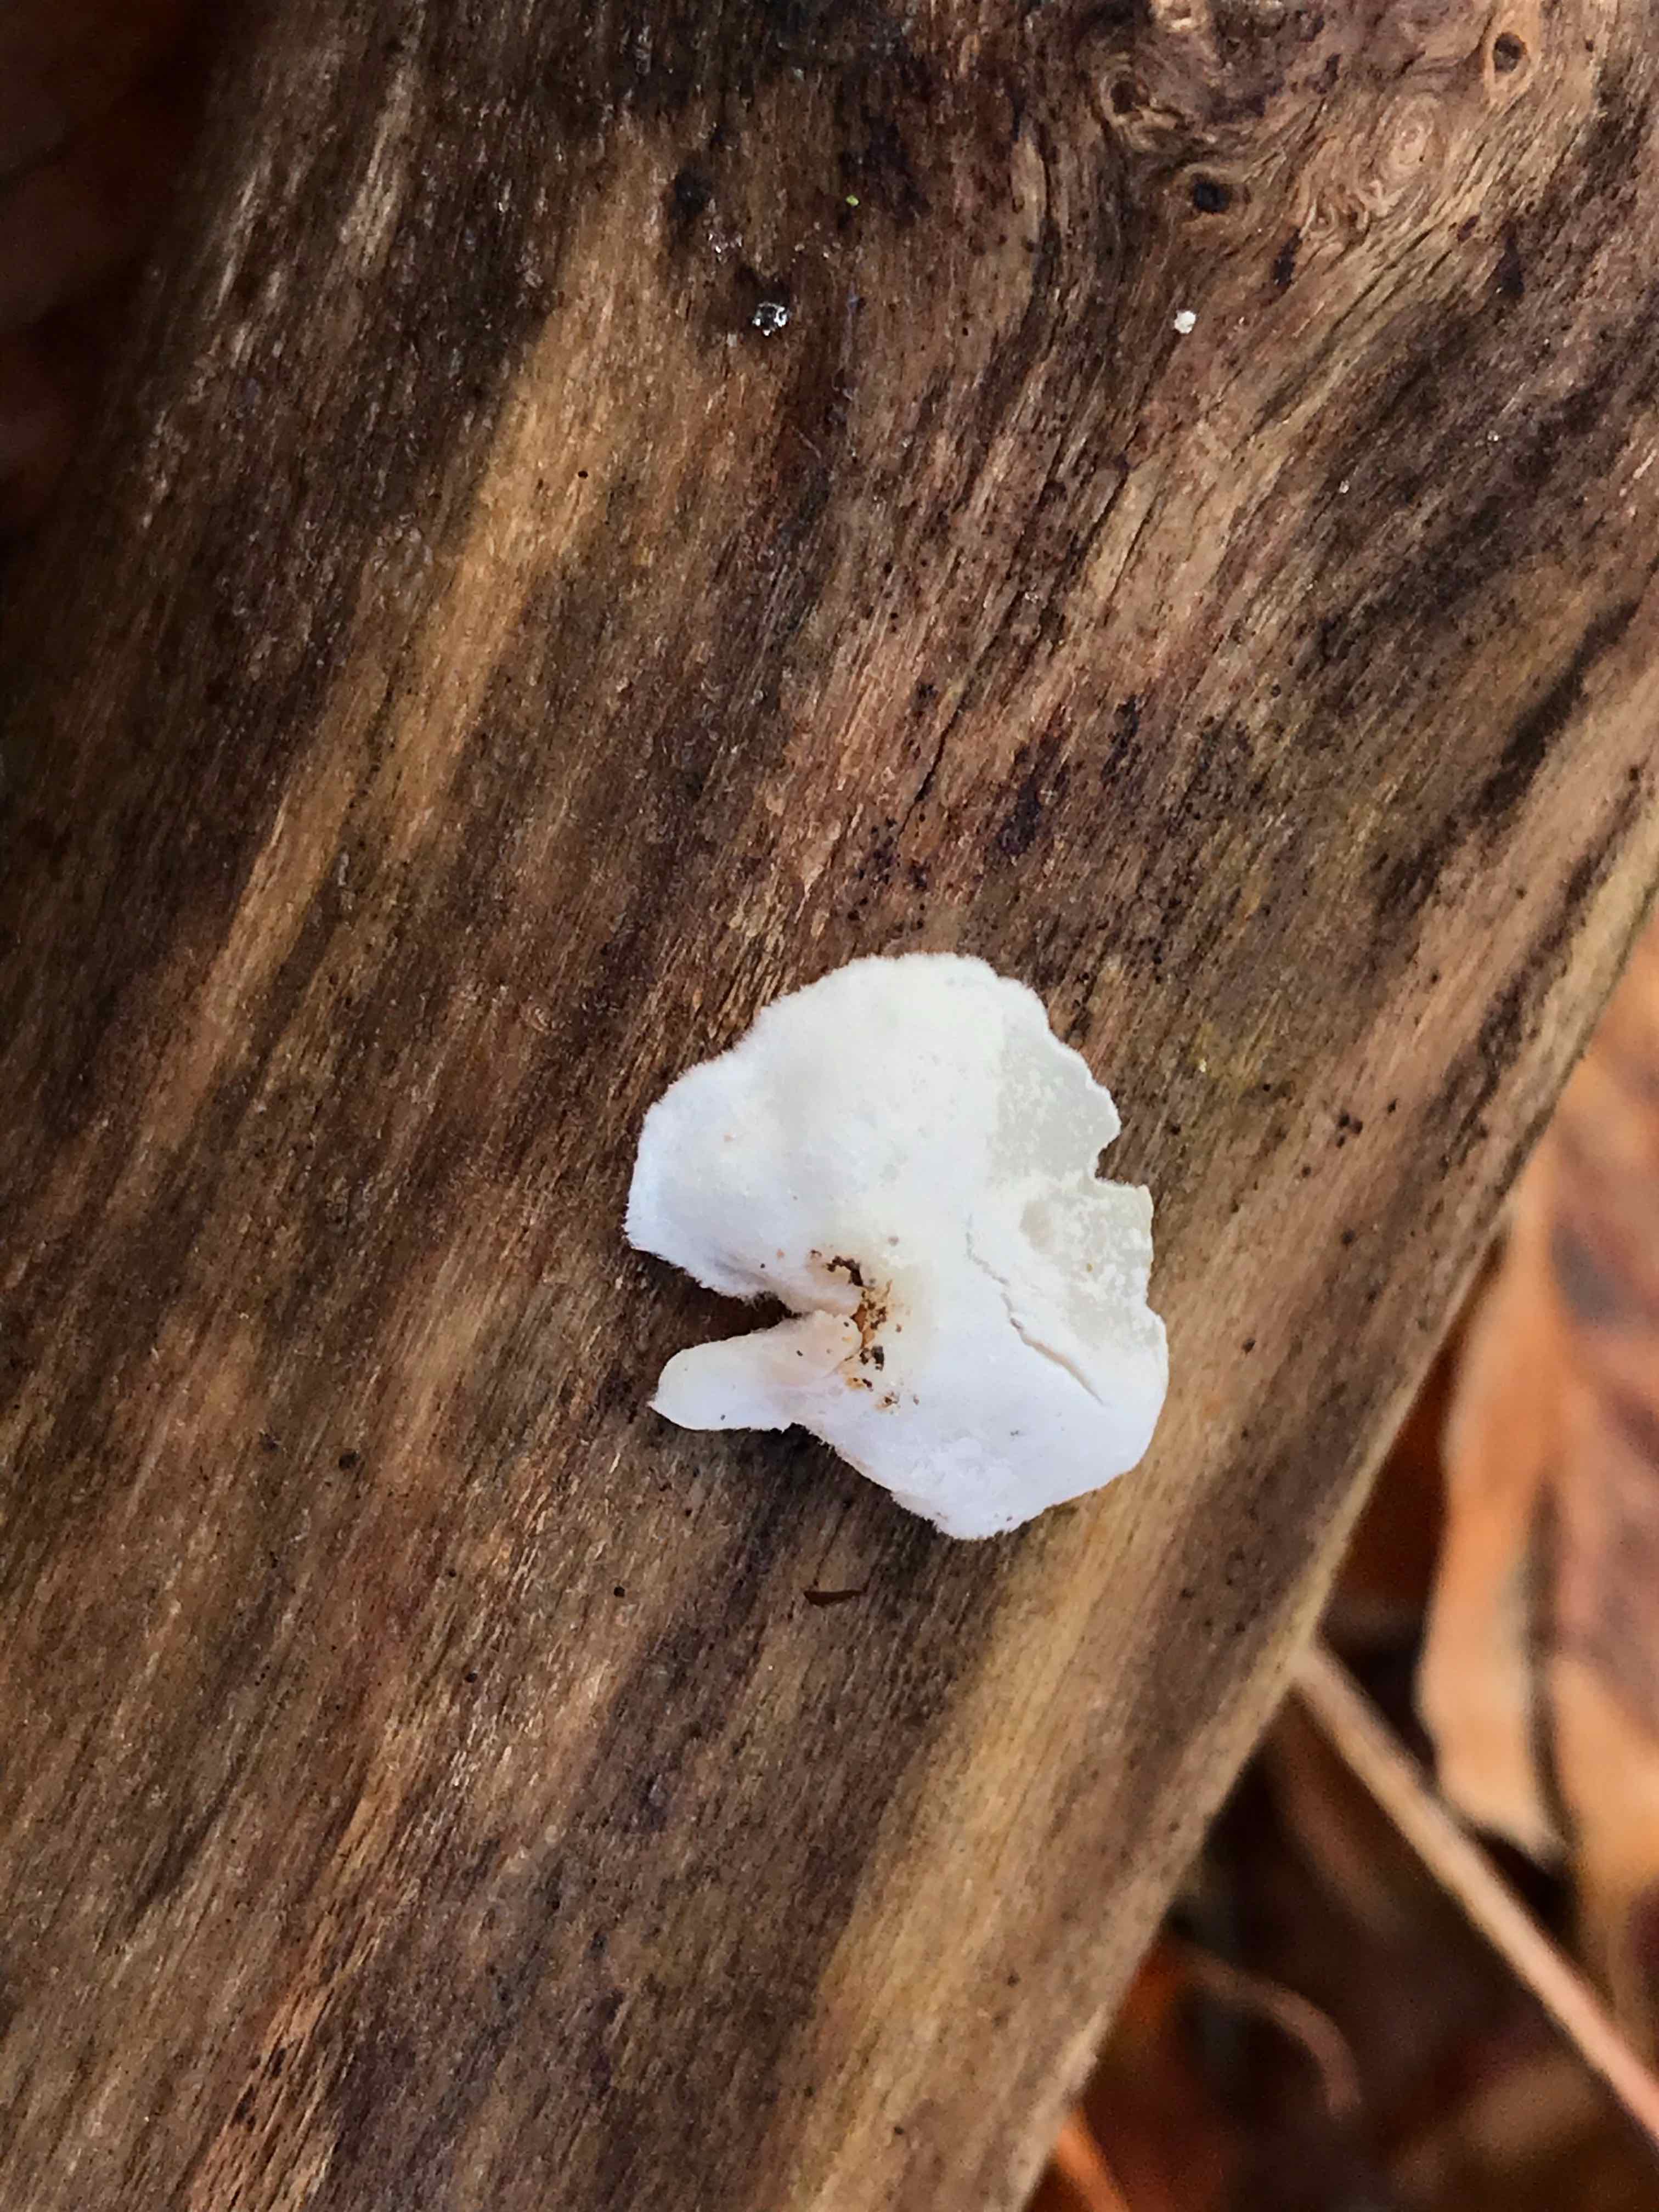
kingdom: Fungi
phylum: Basidiomycota
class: Agaricomycetes
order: Agaricales
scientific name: Agaricales
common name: champignonordenen
